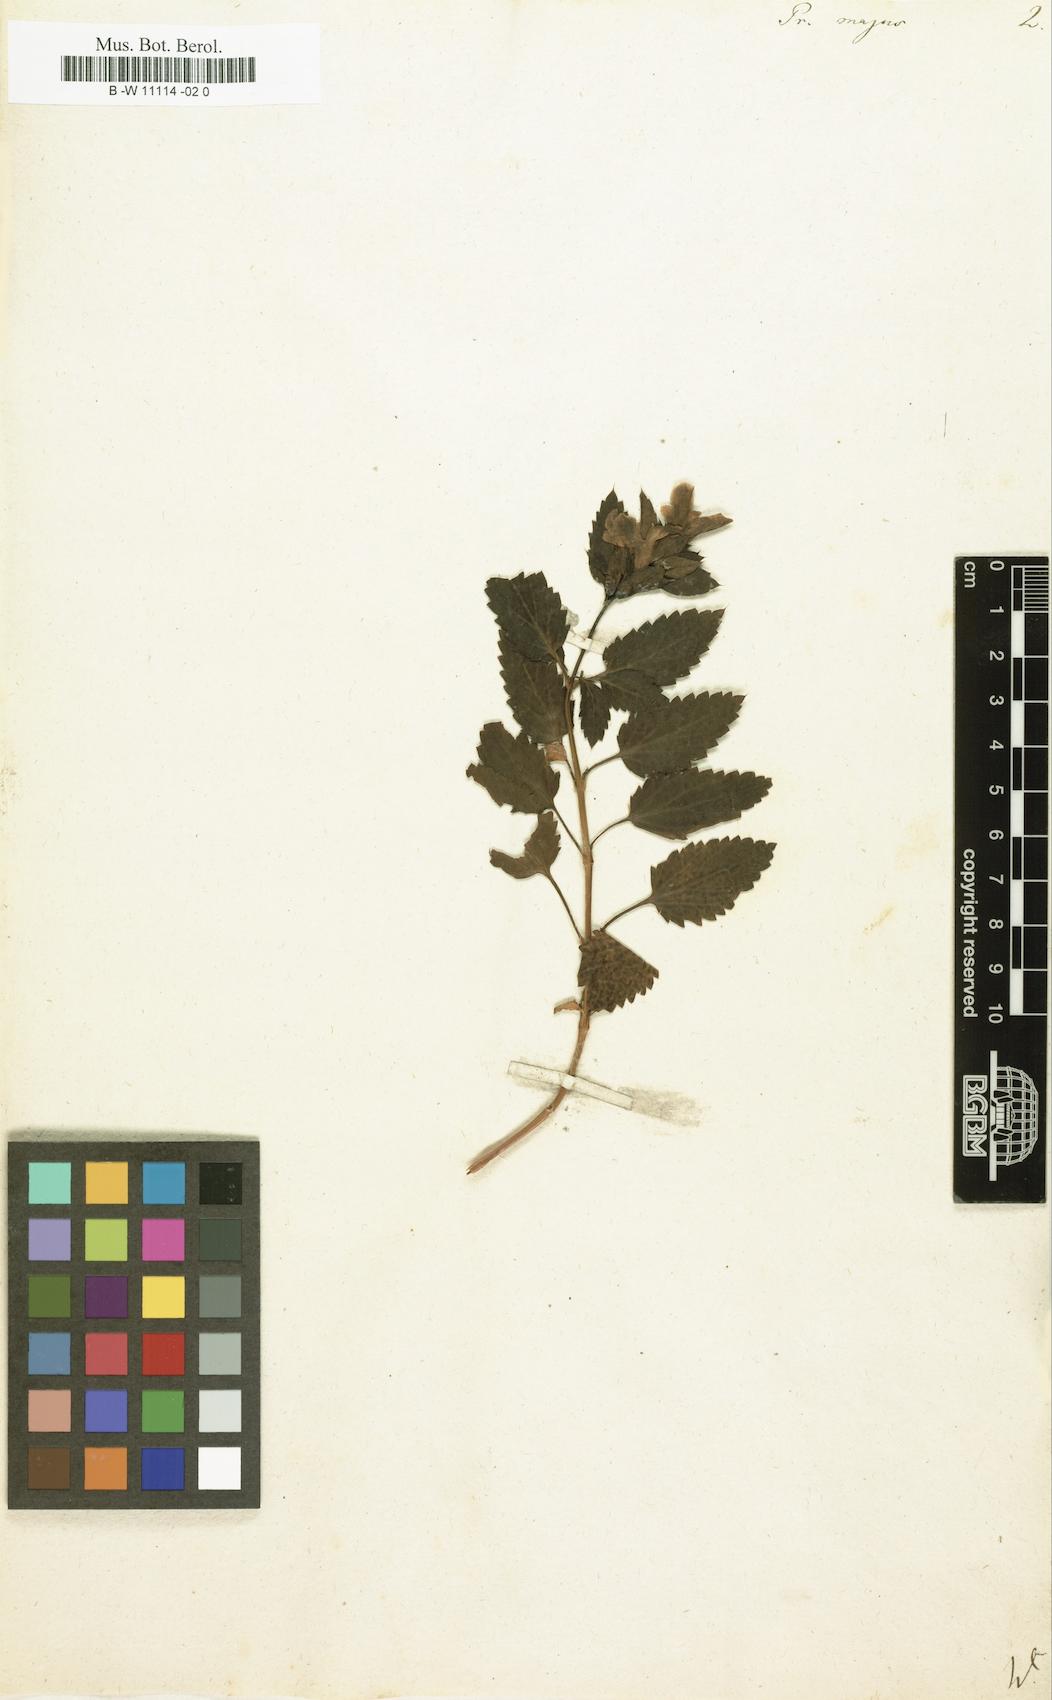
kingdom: Plantae
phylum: Tracheophyta
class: Magnoliopsida
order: Lamiales
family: Lamiaceae
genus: Prasium
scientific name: Prasium majus
